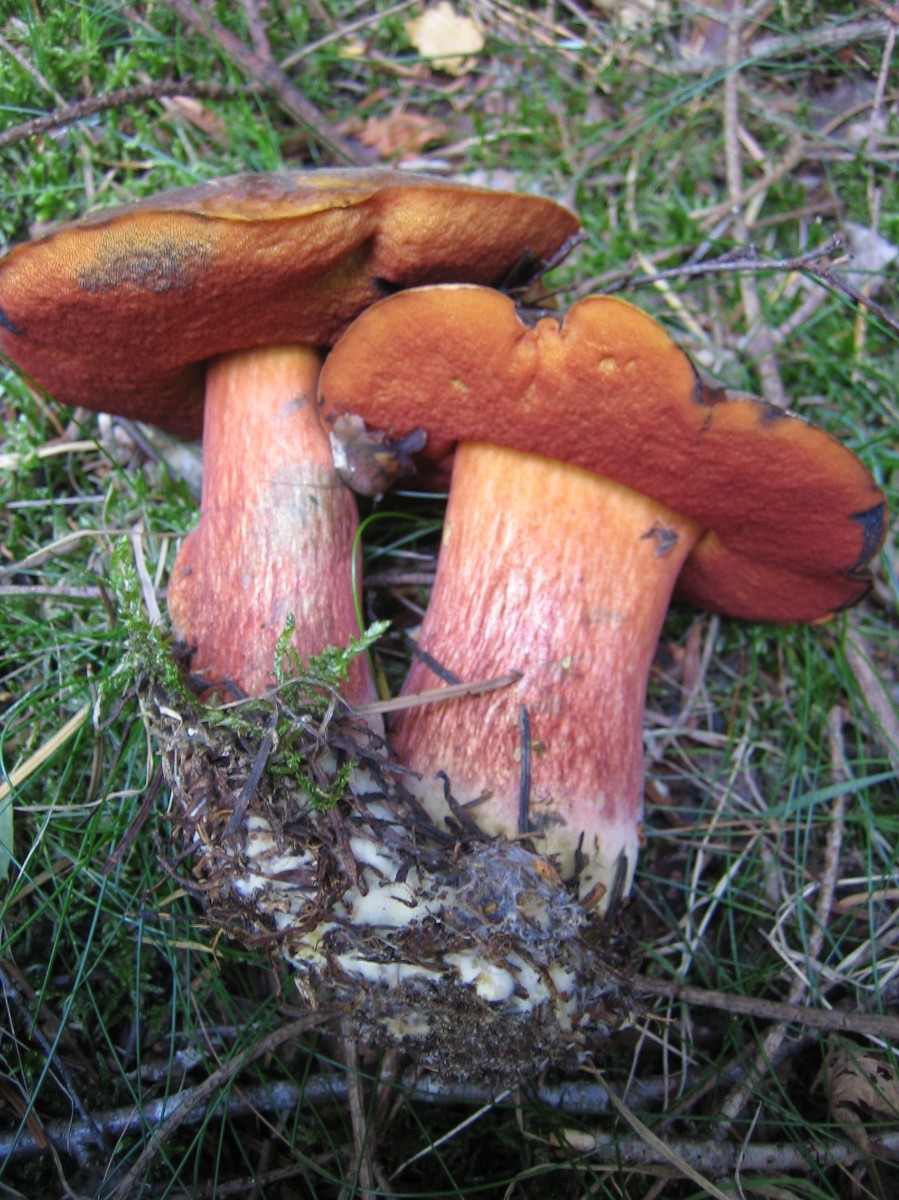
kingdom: Fungi
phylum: Basidiomycota
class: Agaricomycetes
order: Boletales
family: Boletaceae
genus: Neoboletus
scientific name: Neoboletus erythropus
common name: punktstokket indigorørhat
